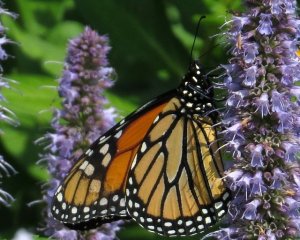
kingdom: Animalia
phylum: Arthropoda
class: Insecta
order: Lepidoptera
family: Nymphalidae
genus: Danaus
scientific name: Danaus plexippus
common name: Monarch
